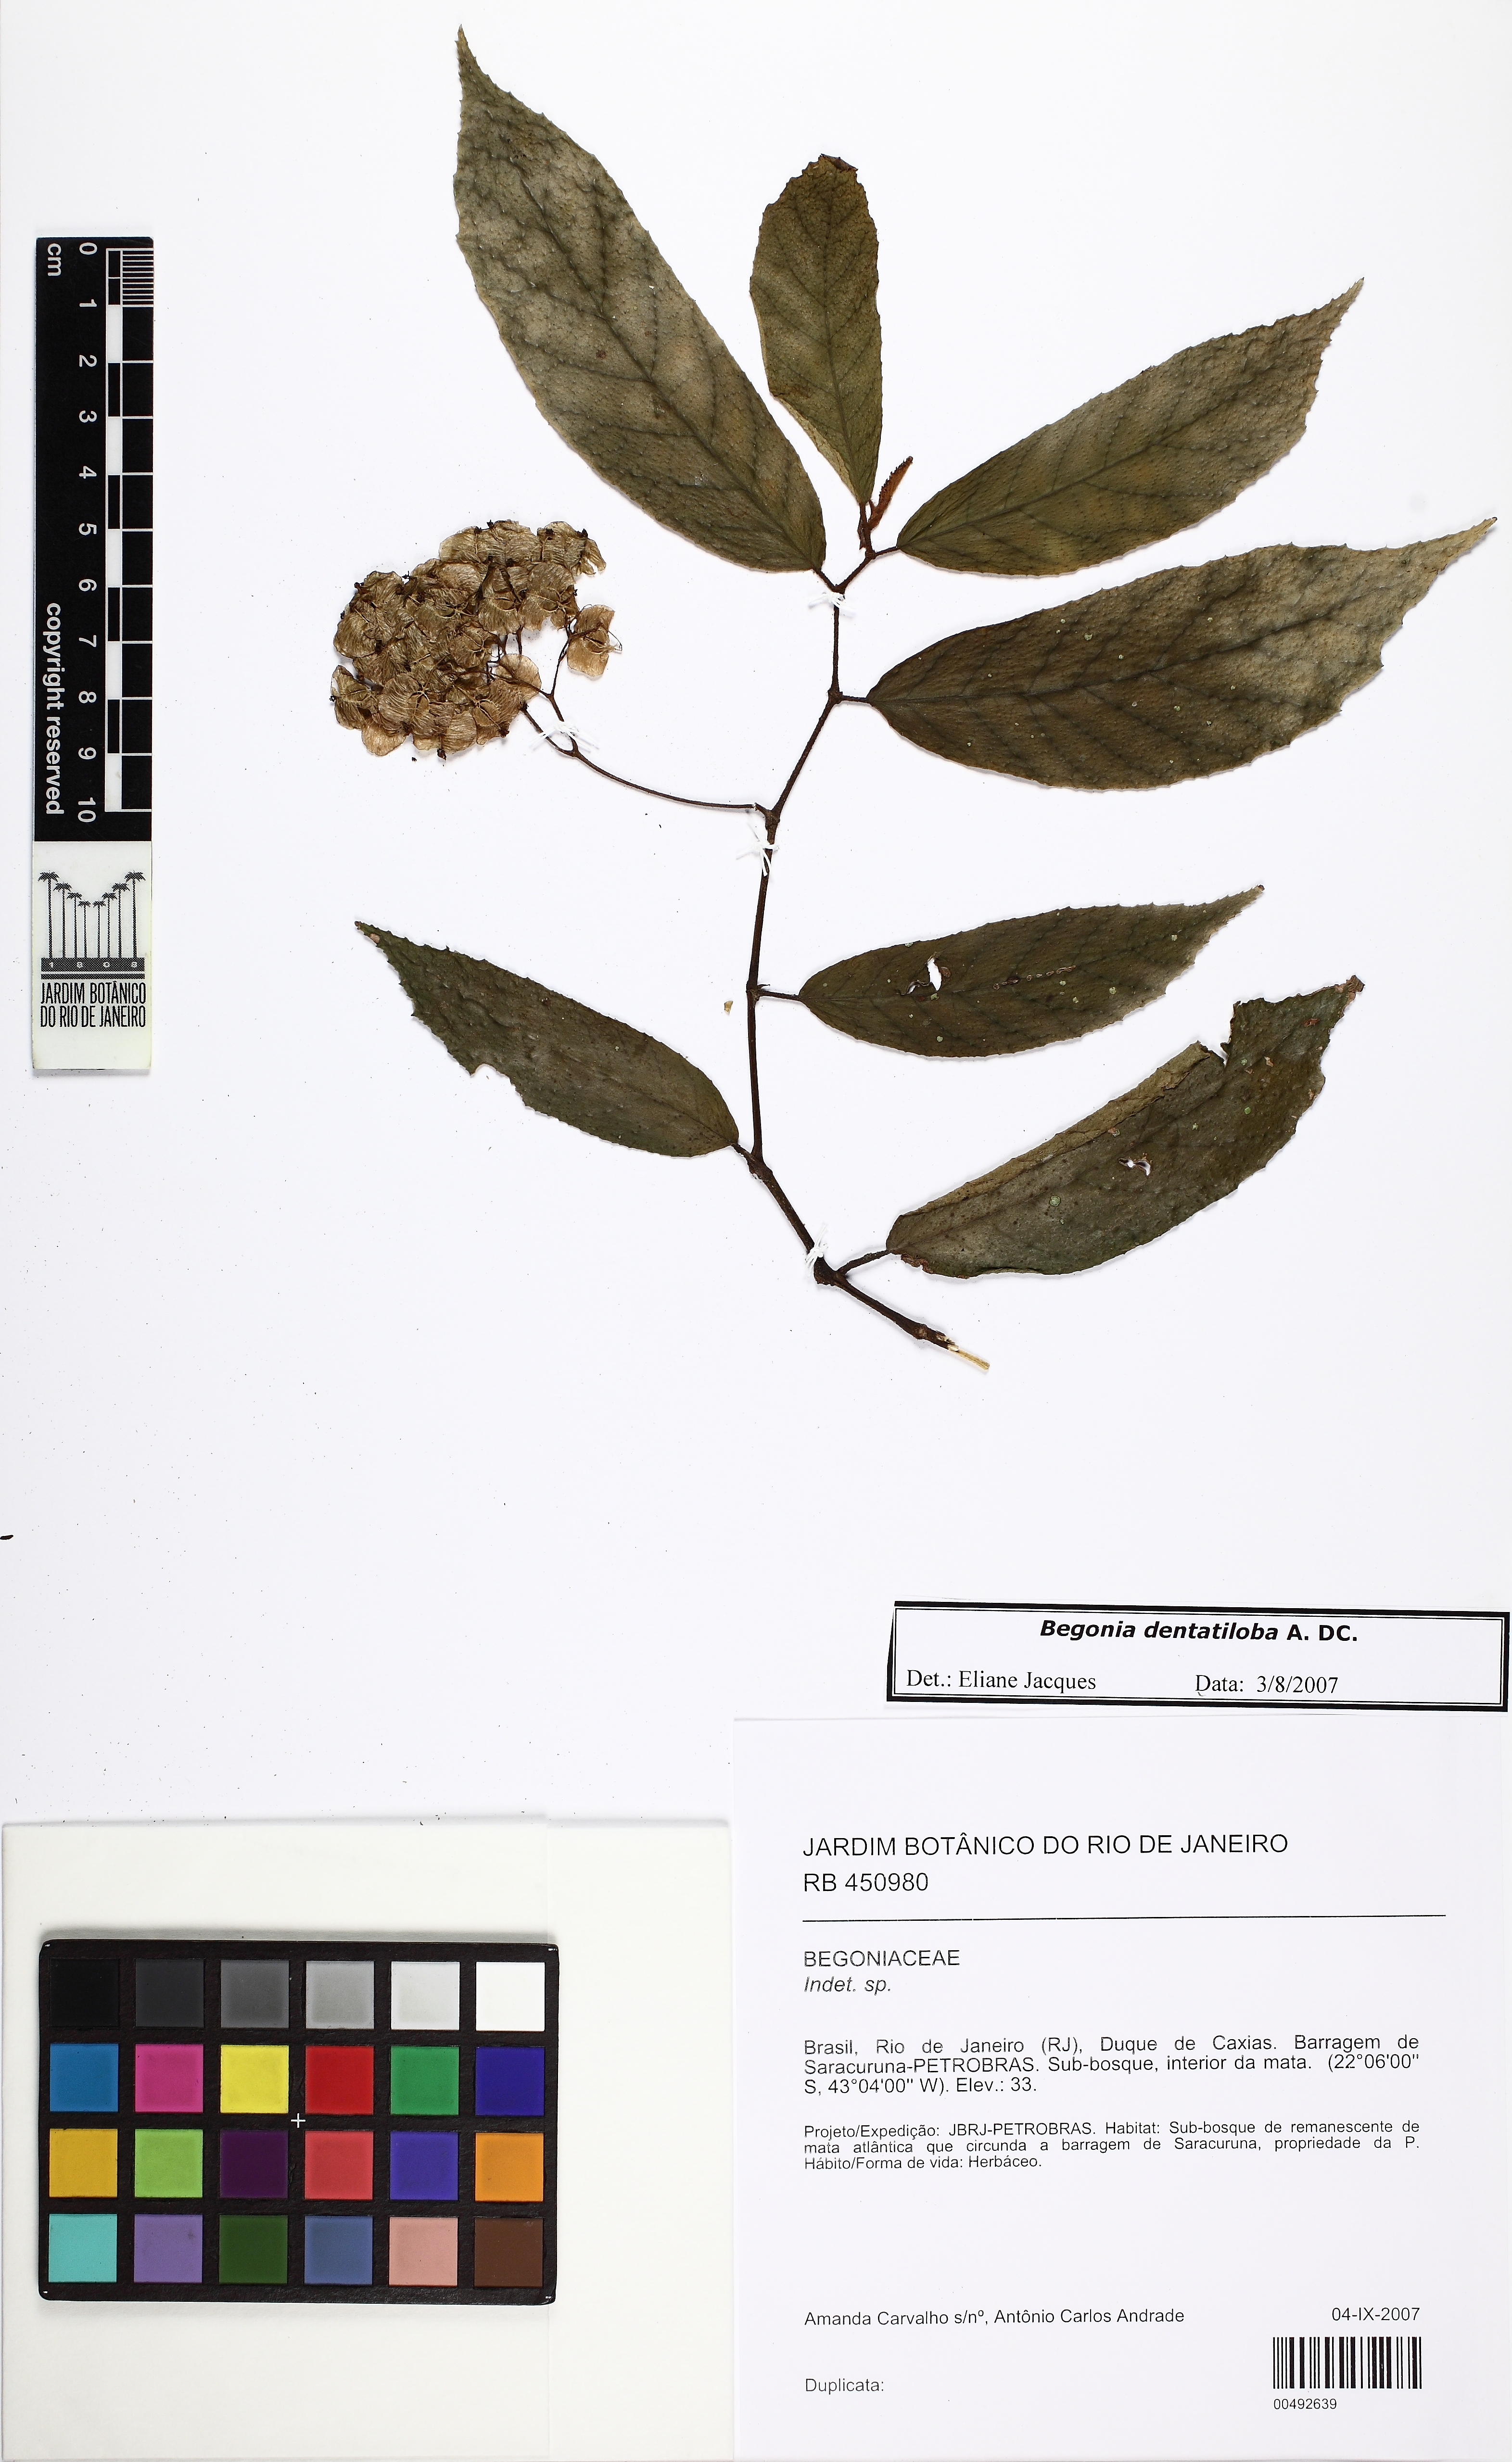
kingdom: Plantae
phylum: Tracheophyta
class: Magnoliopsida
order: Cucurbitales
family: Begoniaceae
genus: Begonia
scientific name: Begonia dentatiloba
